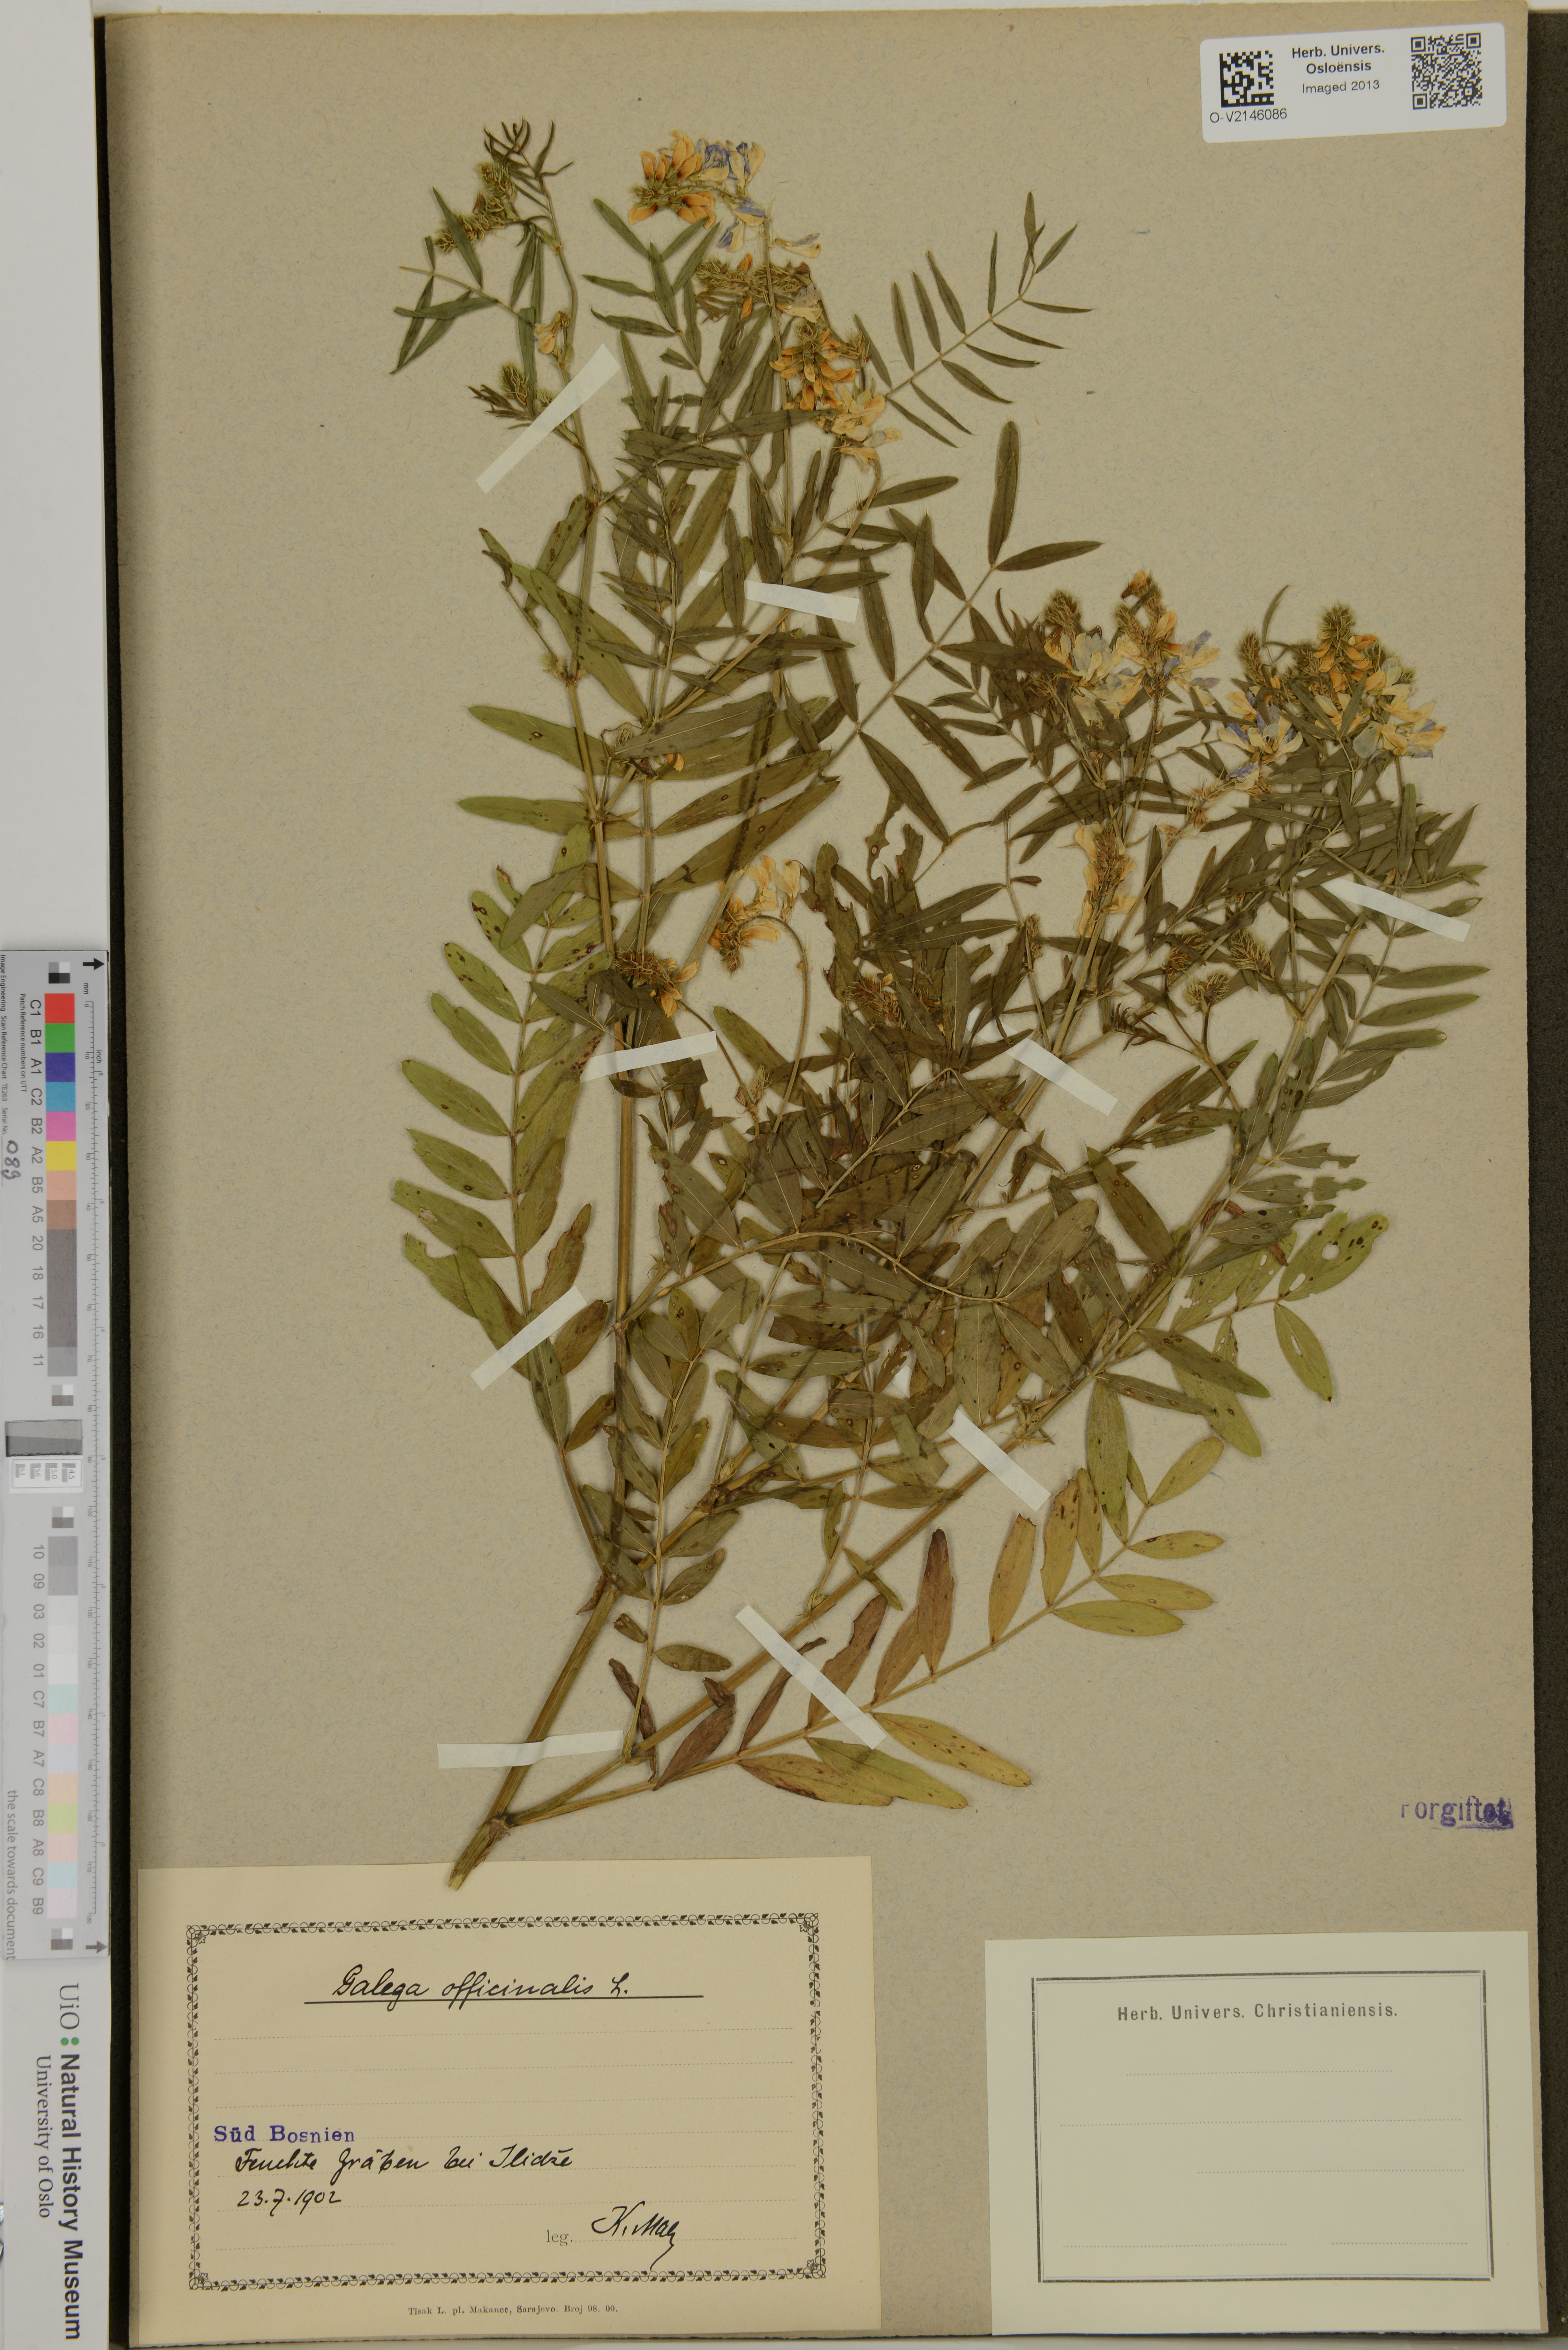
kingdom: Plantae
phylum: Tracheophyta
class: Magnoliopsida
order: Fabales
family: Fabaceae
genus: Galega
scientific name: Galega officinalis
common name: Goat's-rue
